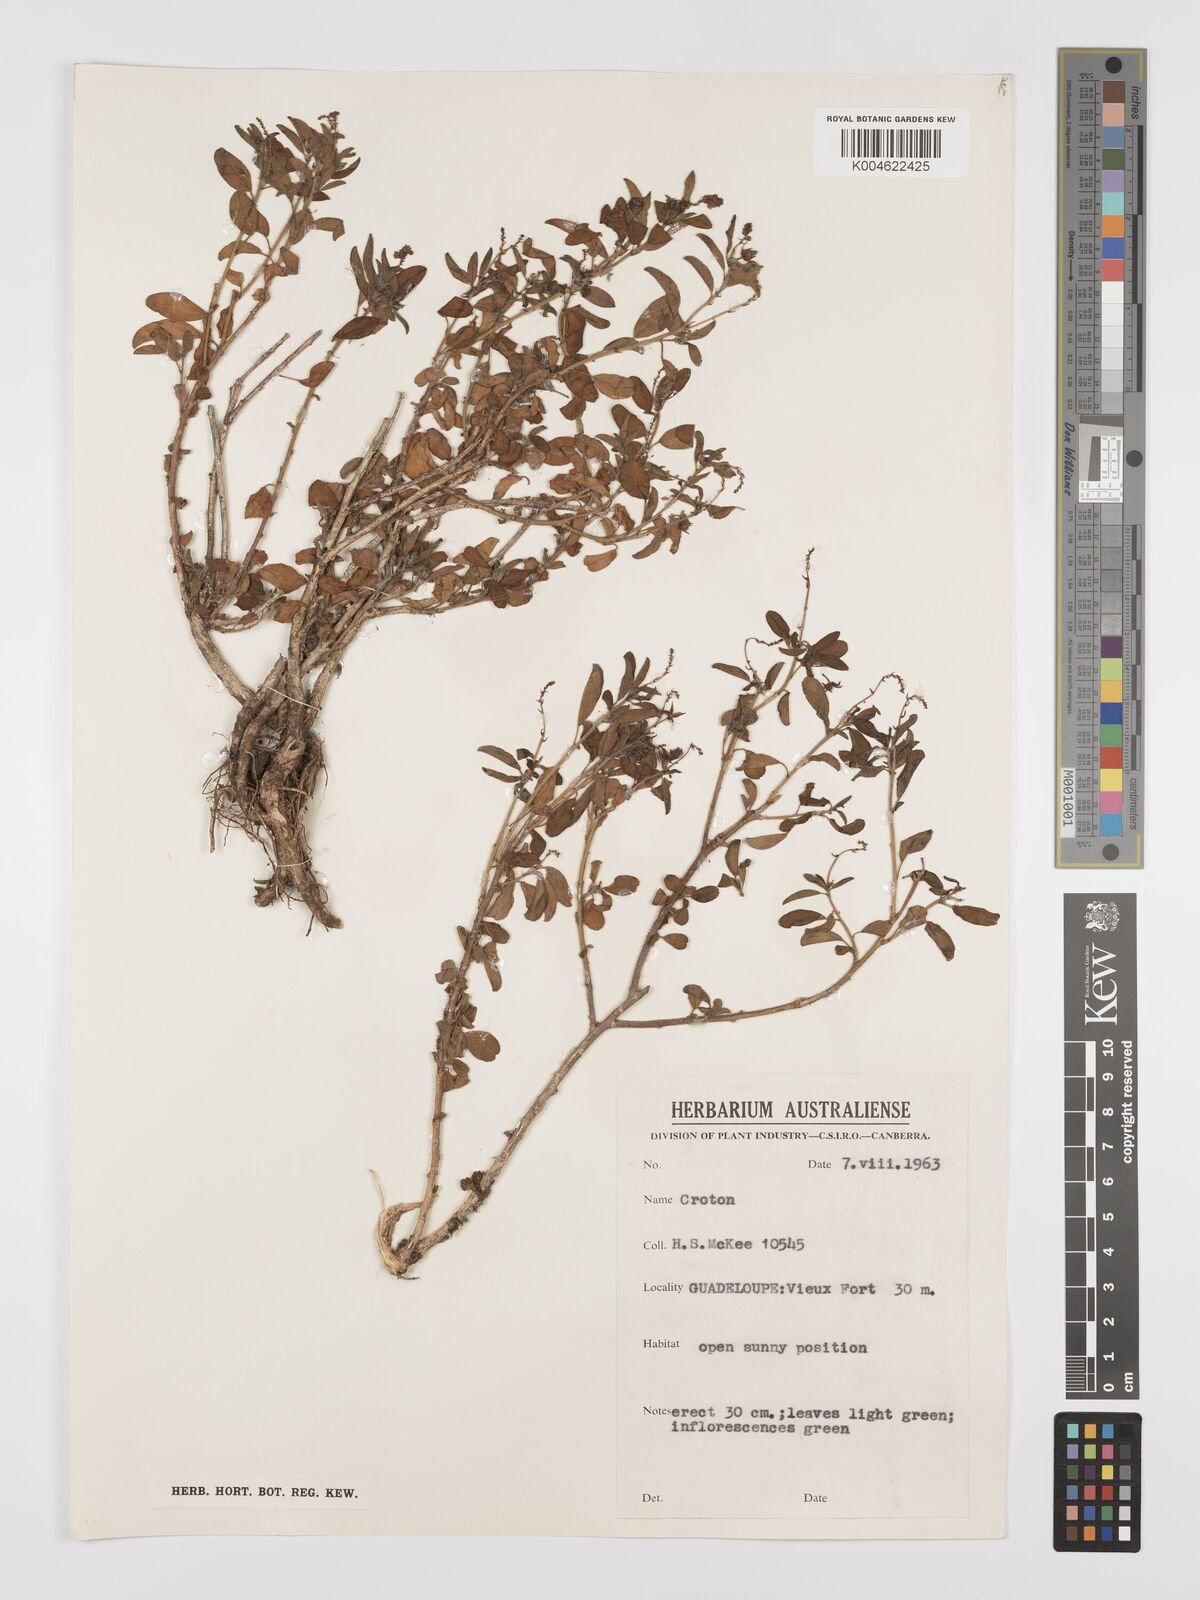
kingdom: Plantae
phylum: Tracheophyta
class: Magnoliopsida
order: Malpighiales
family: Euphorbiaceae
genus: Croton
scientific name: Croton
